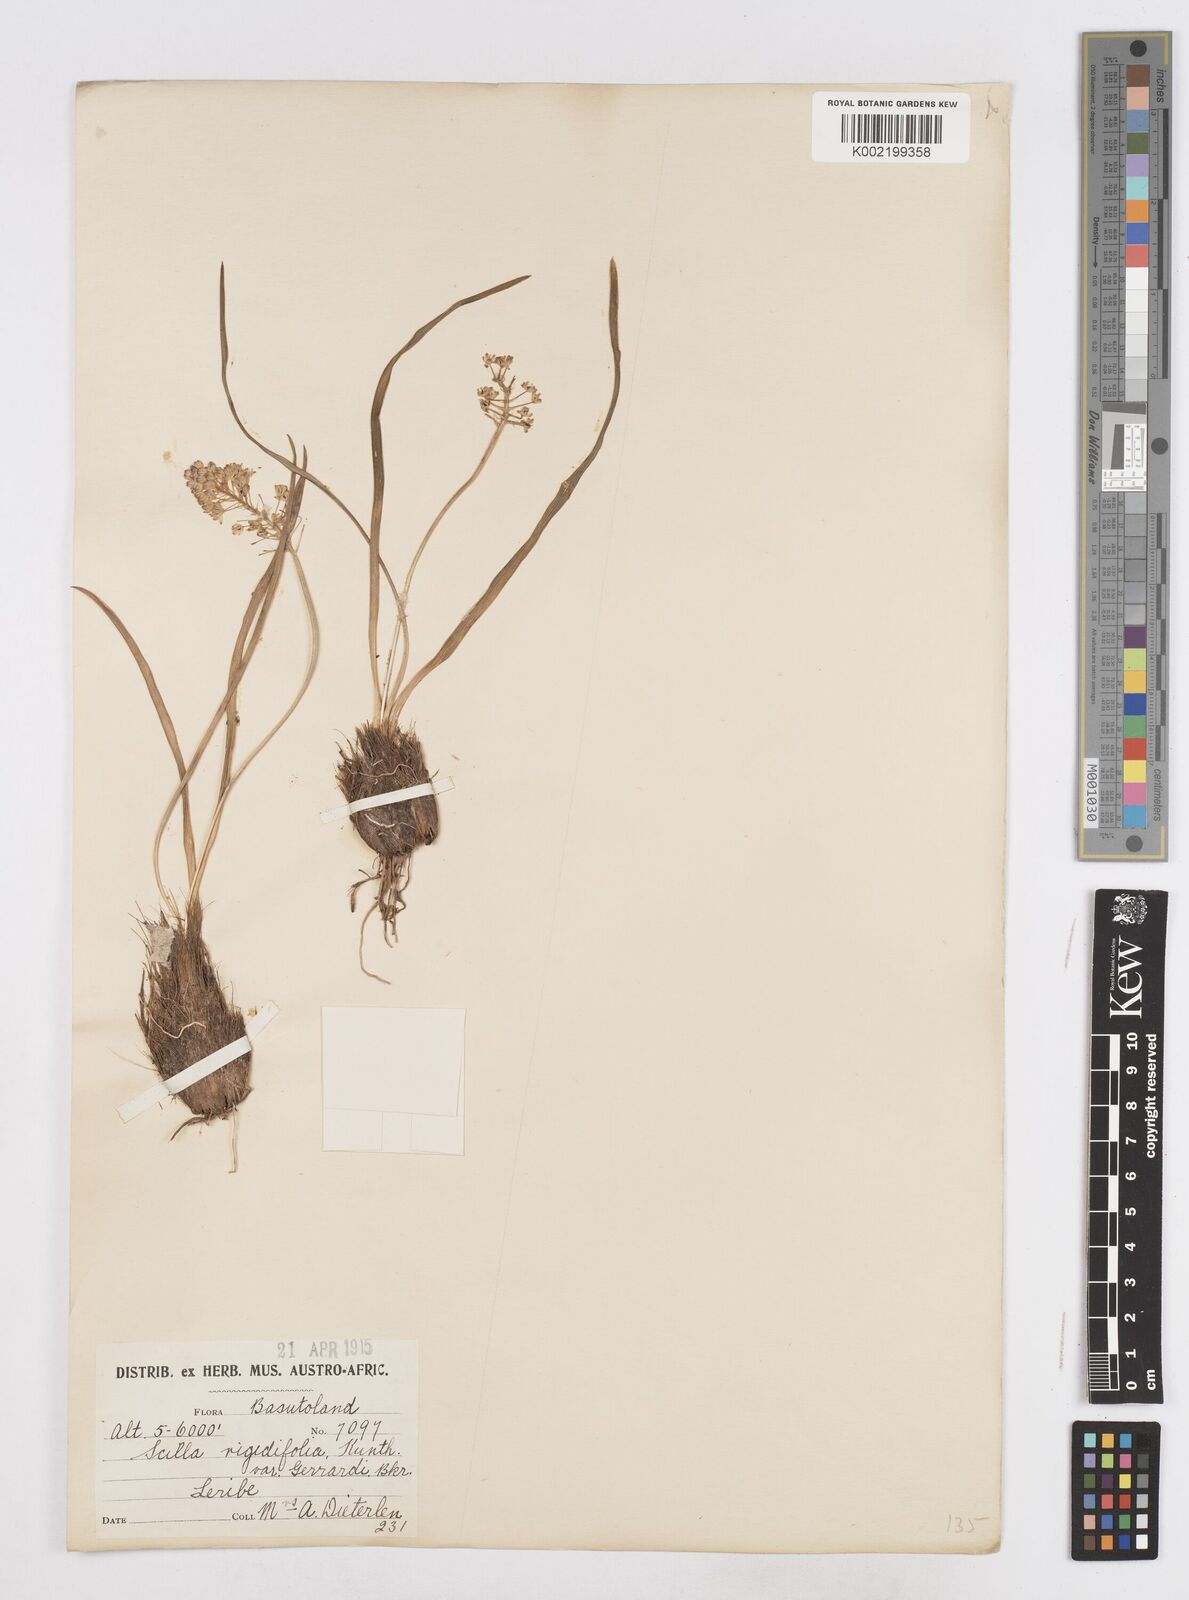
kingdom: Plantae
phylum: Tracheophyta
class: Liliopsida
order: Asparagales
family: Asparagaceae
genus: Schizocarphus
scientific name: Schizocarphus nervosus
